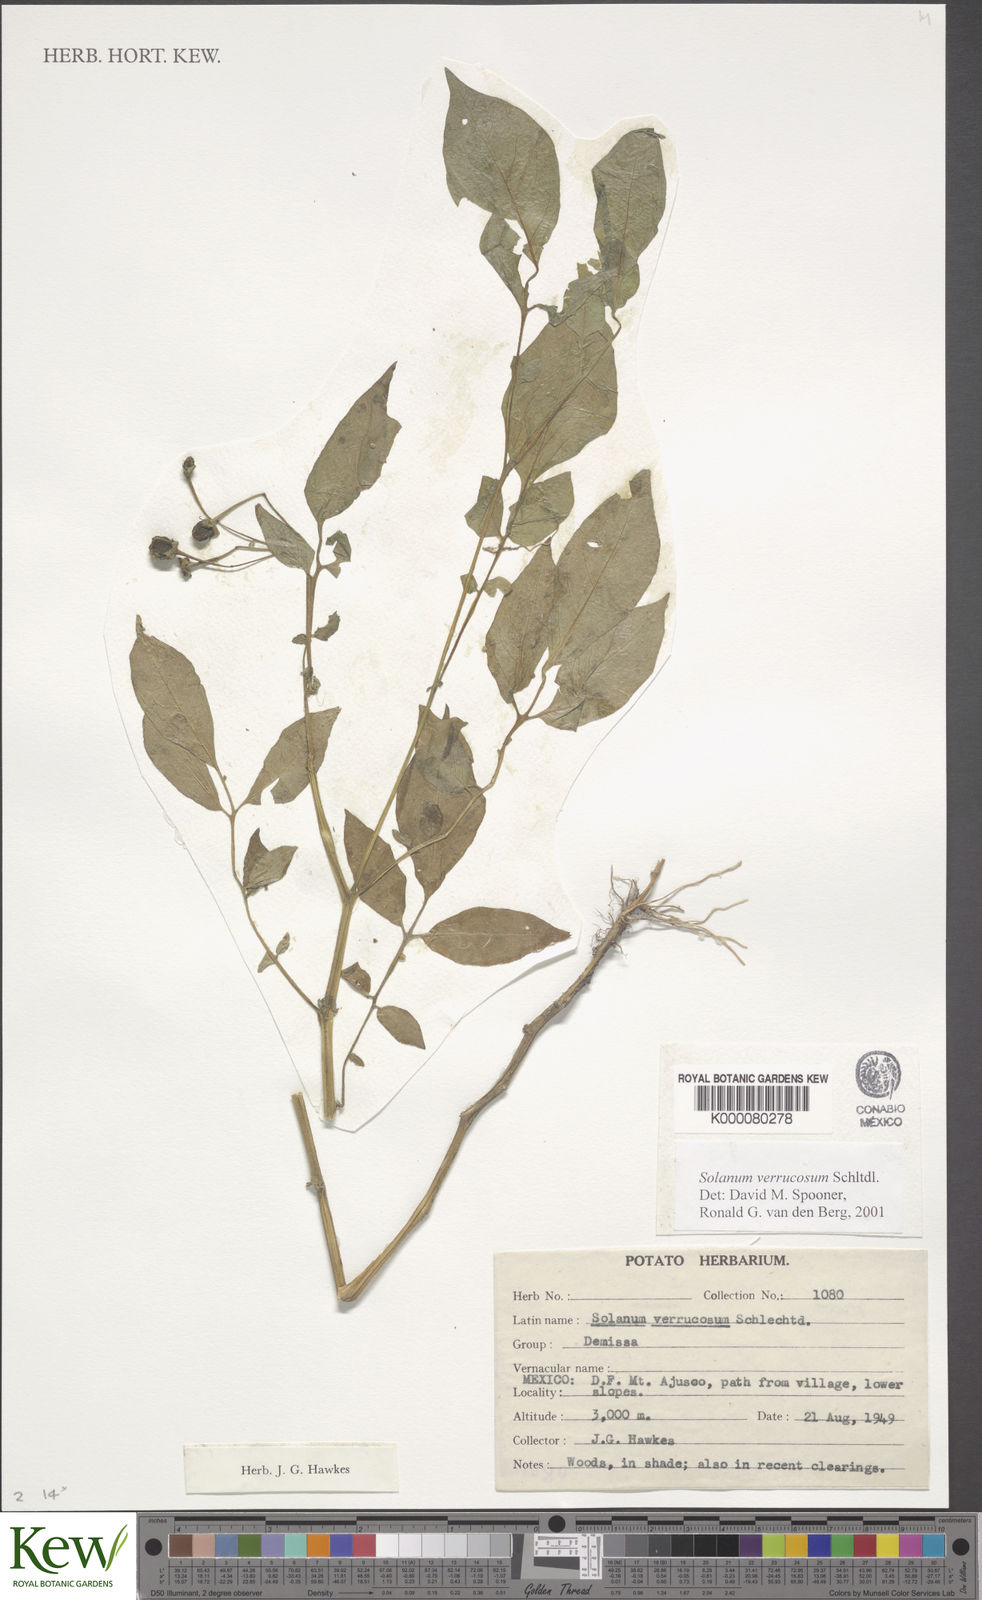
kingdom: Plantae
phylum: Tracheophyta
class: Magnoliopsida
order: Solanales
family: Solanaceae
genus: Solanum
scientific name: Solanum verrucosum
